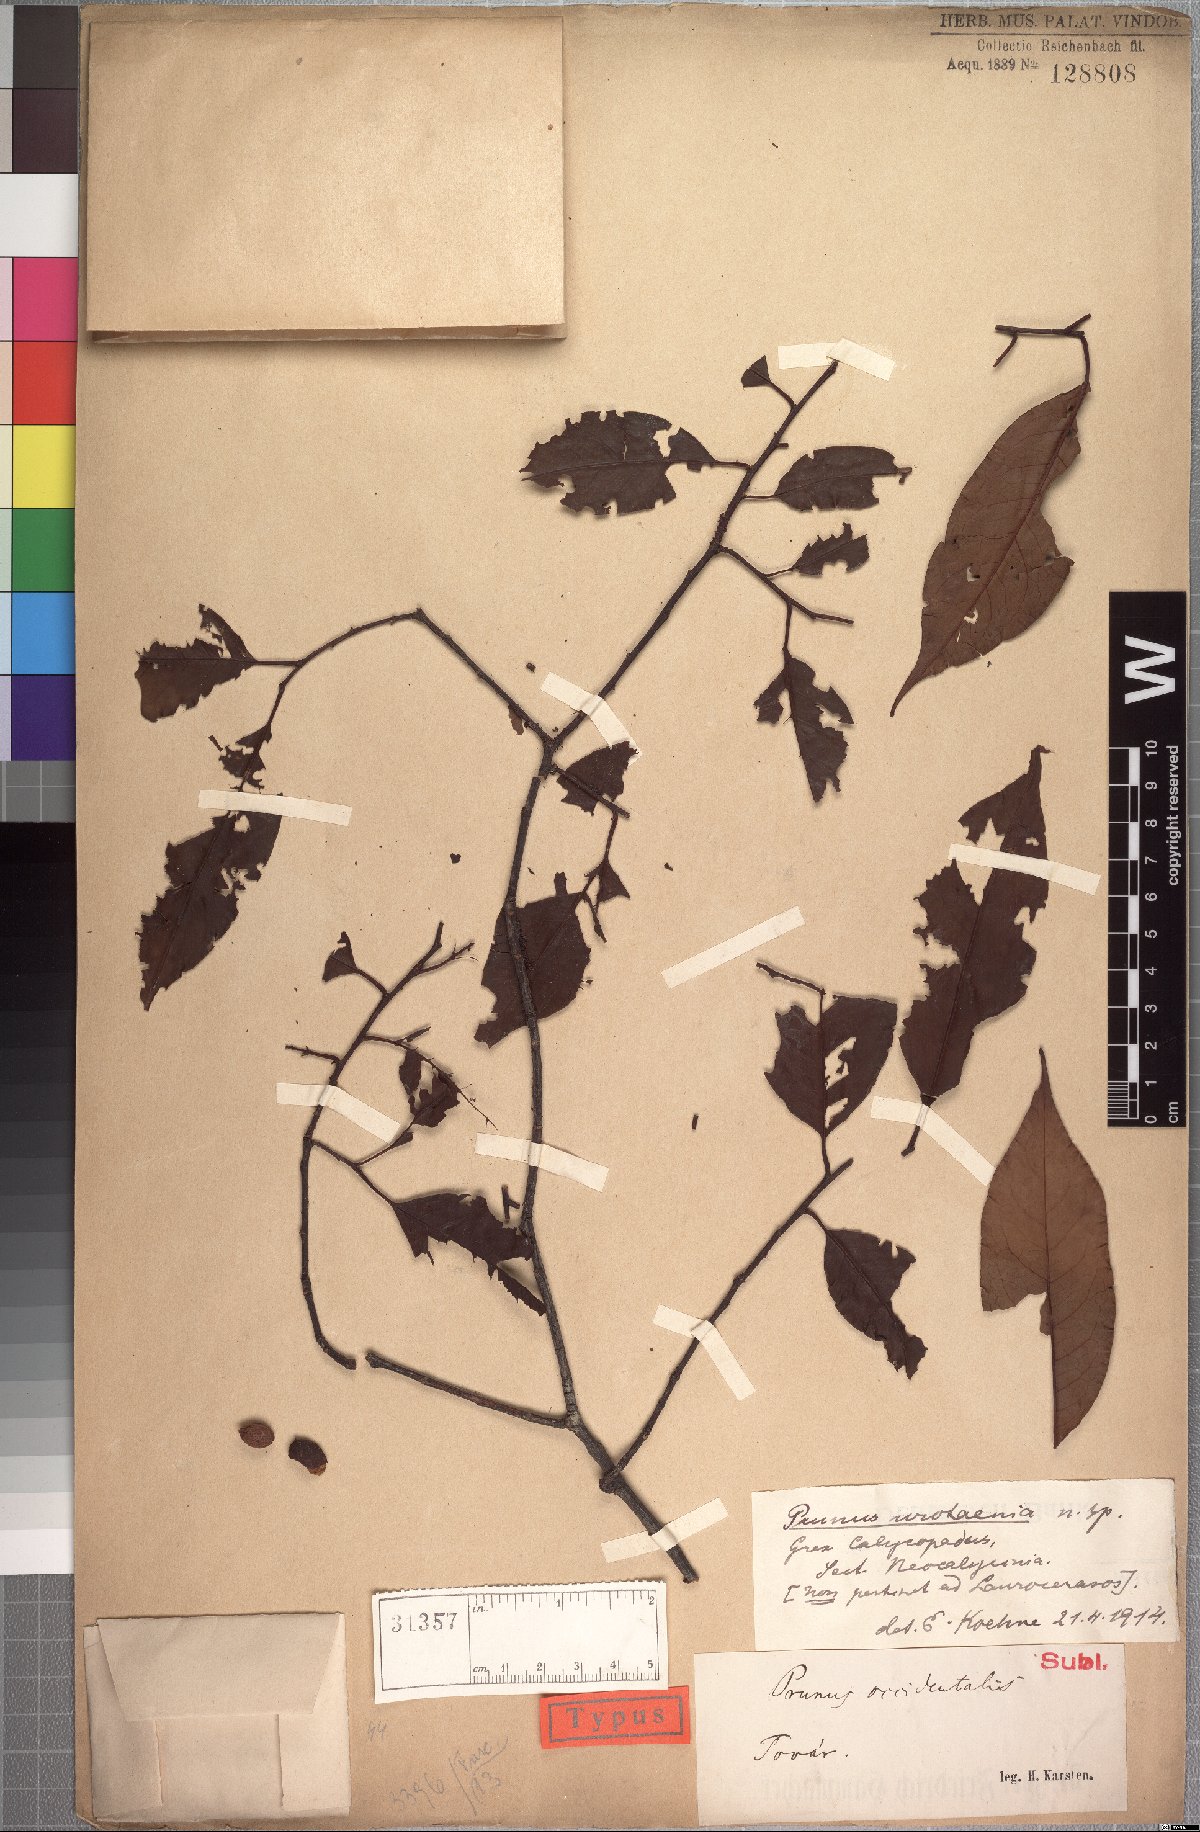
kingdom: Plantae
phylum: Tracheophyta
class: Magnoliopsida
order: Rosales
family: Rosaceae
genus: Prunus
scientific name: Prunus urotaenia
